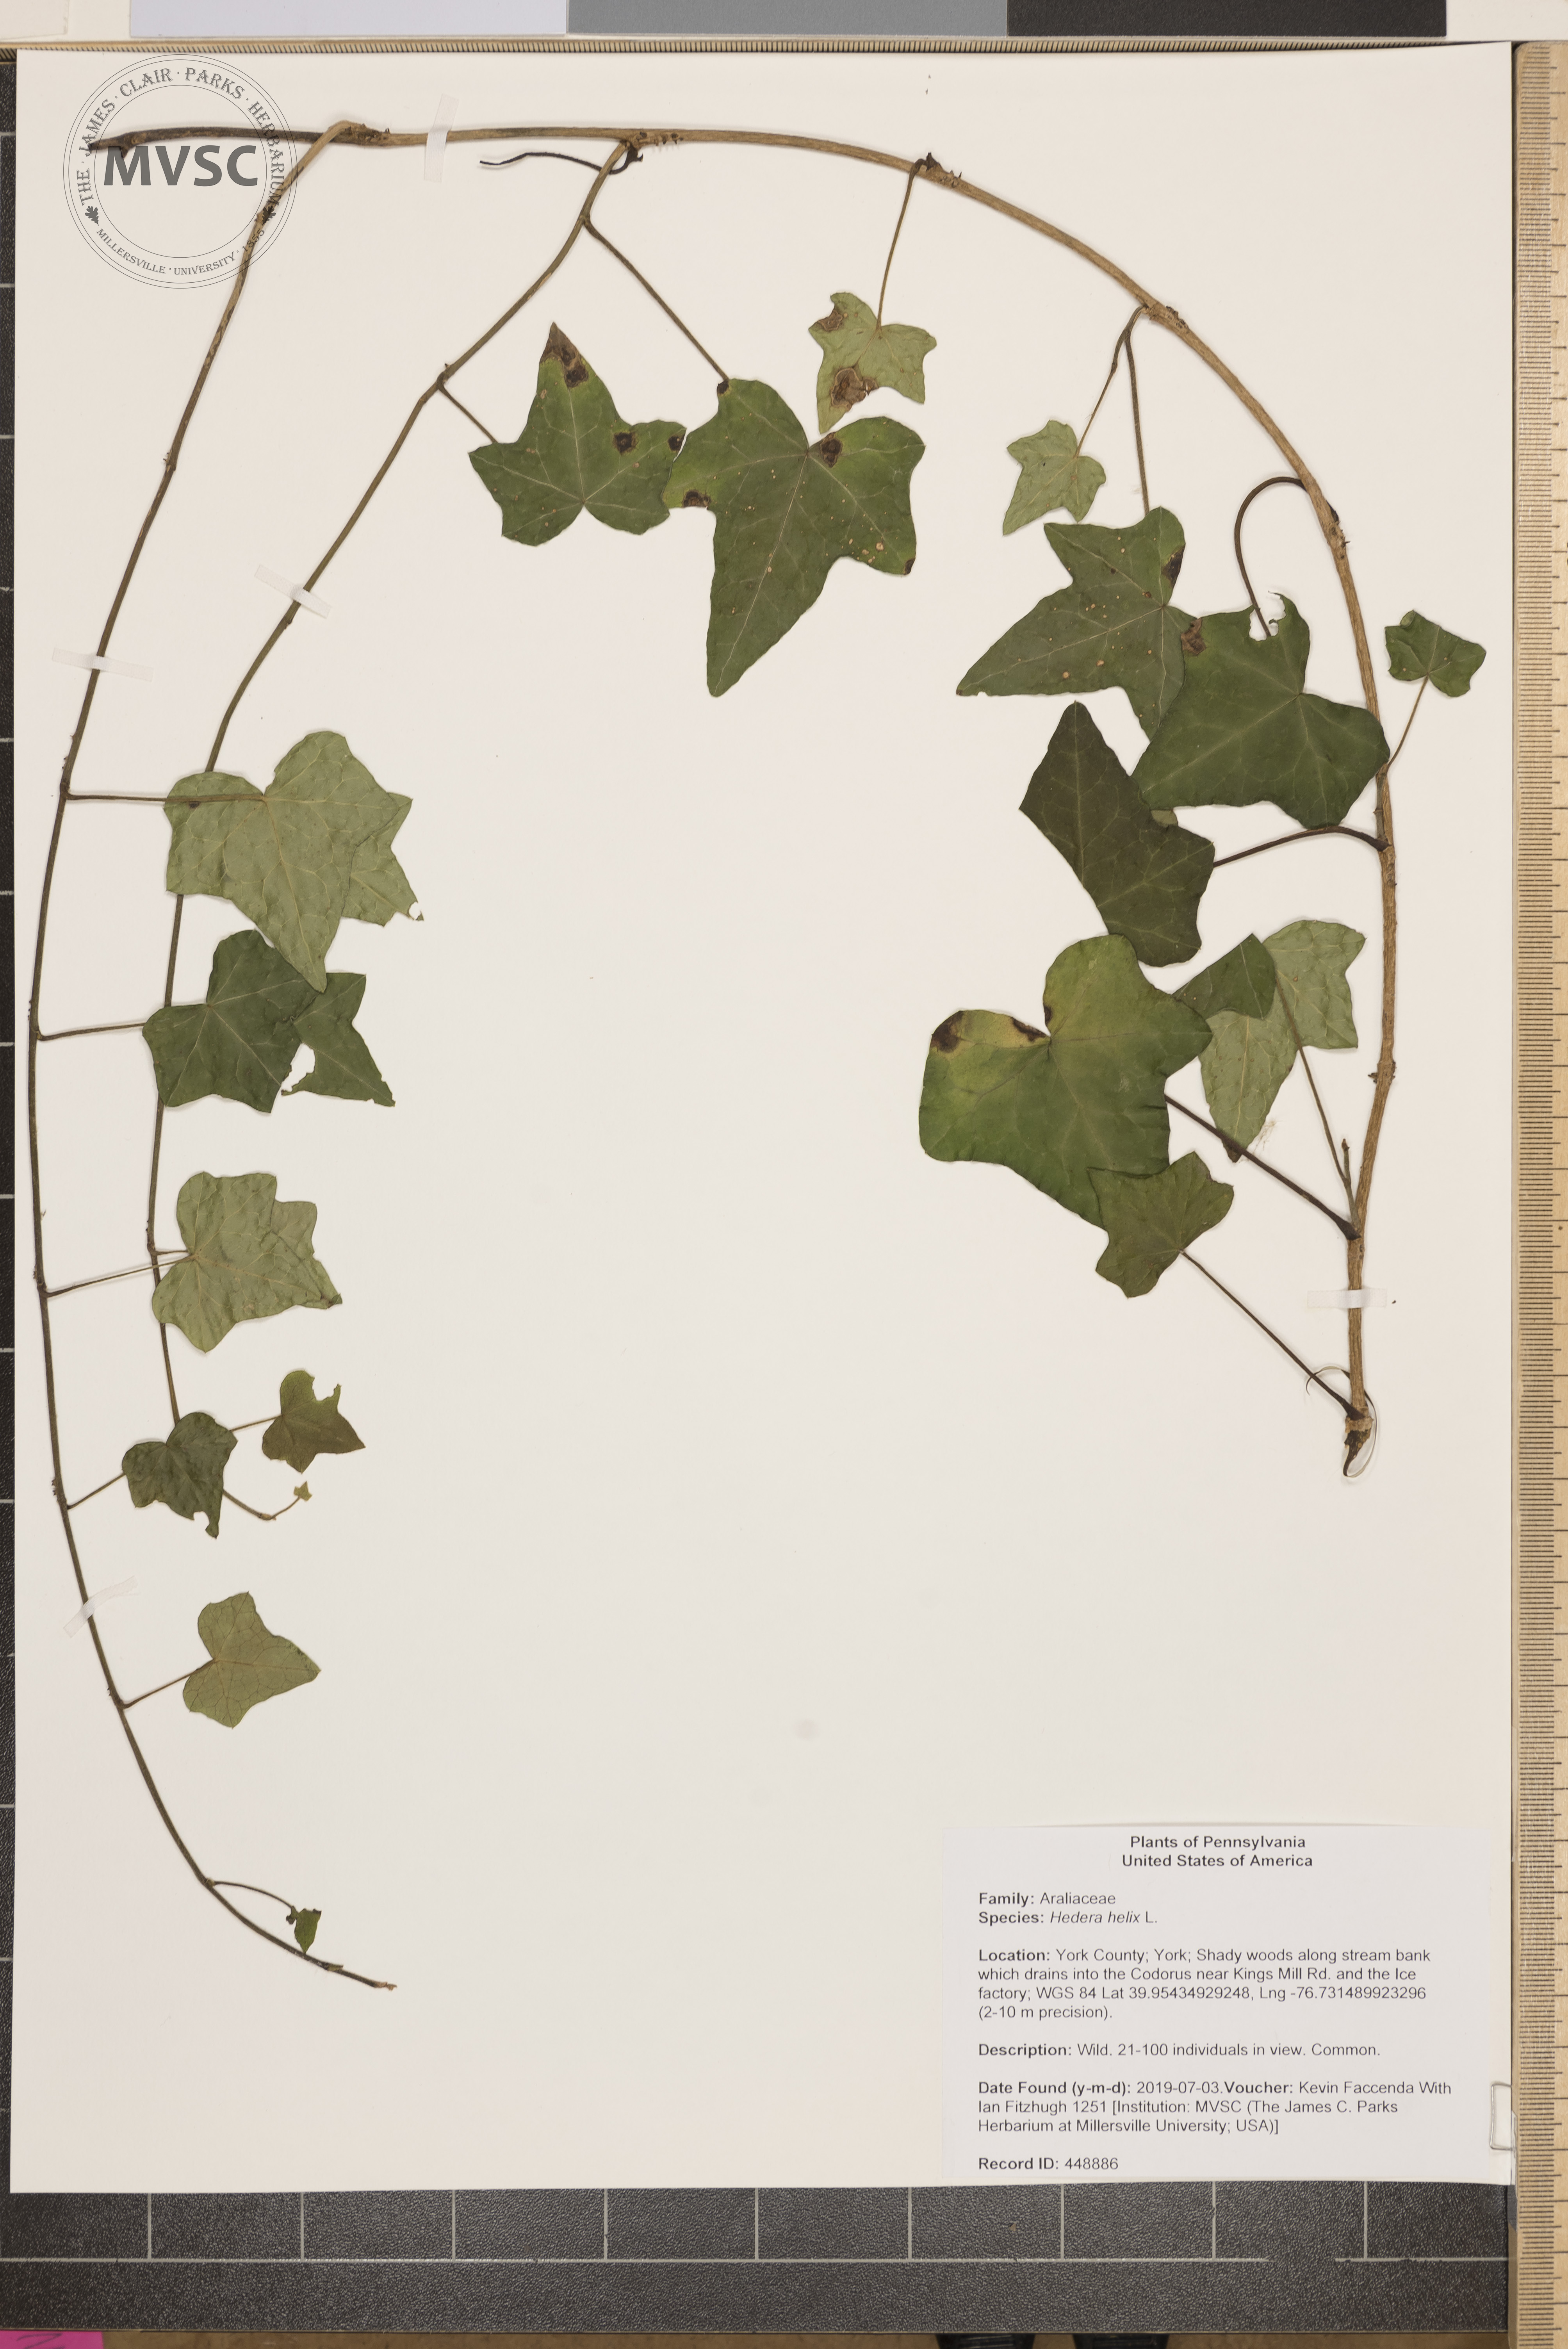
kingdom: Plantae
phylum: Tracheophyta
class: Magnoliopsida
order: Apiales
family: Araliaceae
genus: Hedera
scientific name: Hedera helix
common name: Ivy
